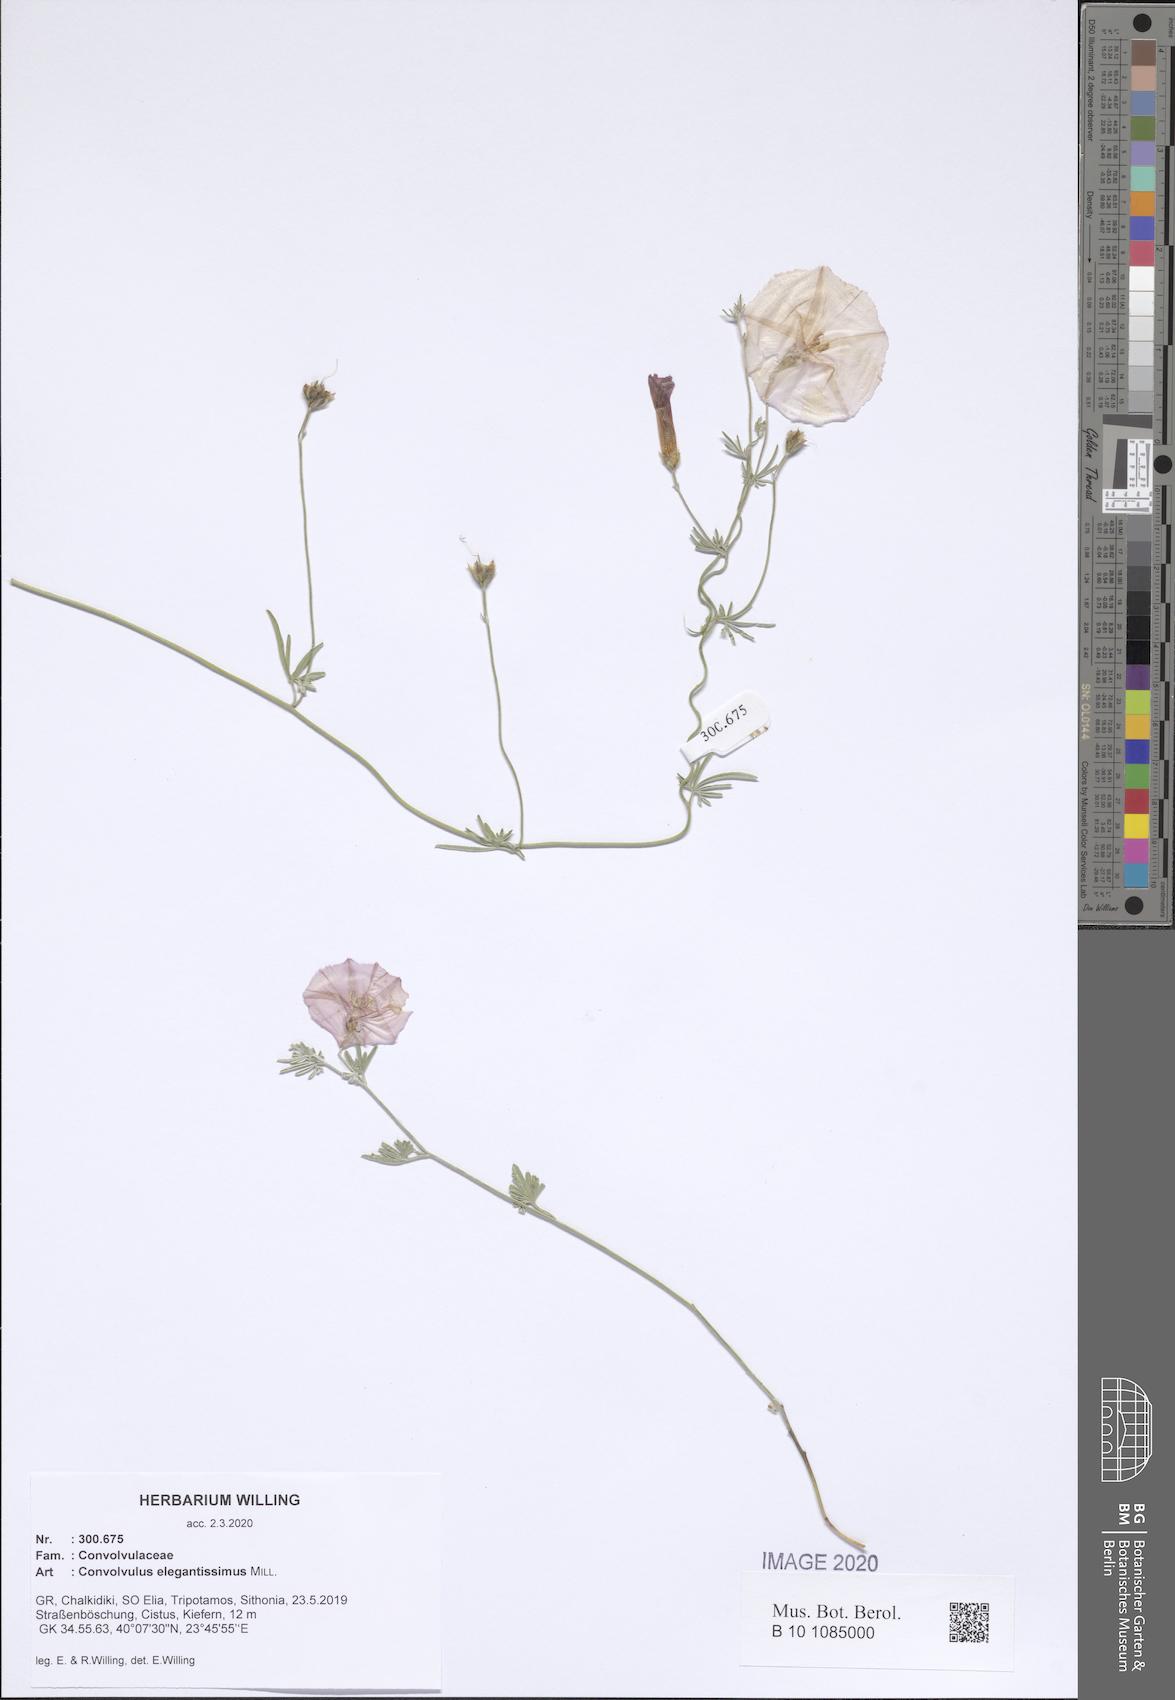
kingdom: Plantae
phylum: Tracheophyta
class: Magnoliopsida
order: Solanales
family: Convolvulaceae
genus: Convolvulus
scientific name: Convolvulus elegantissimus
